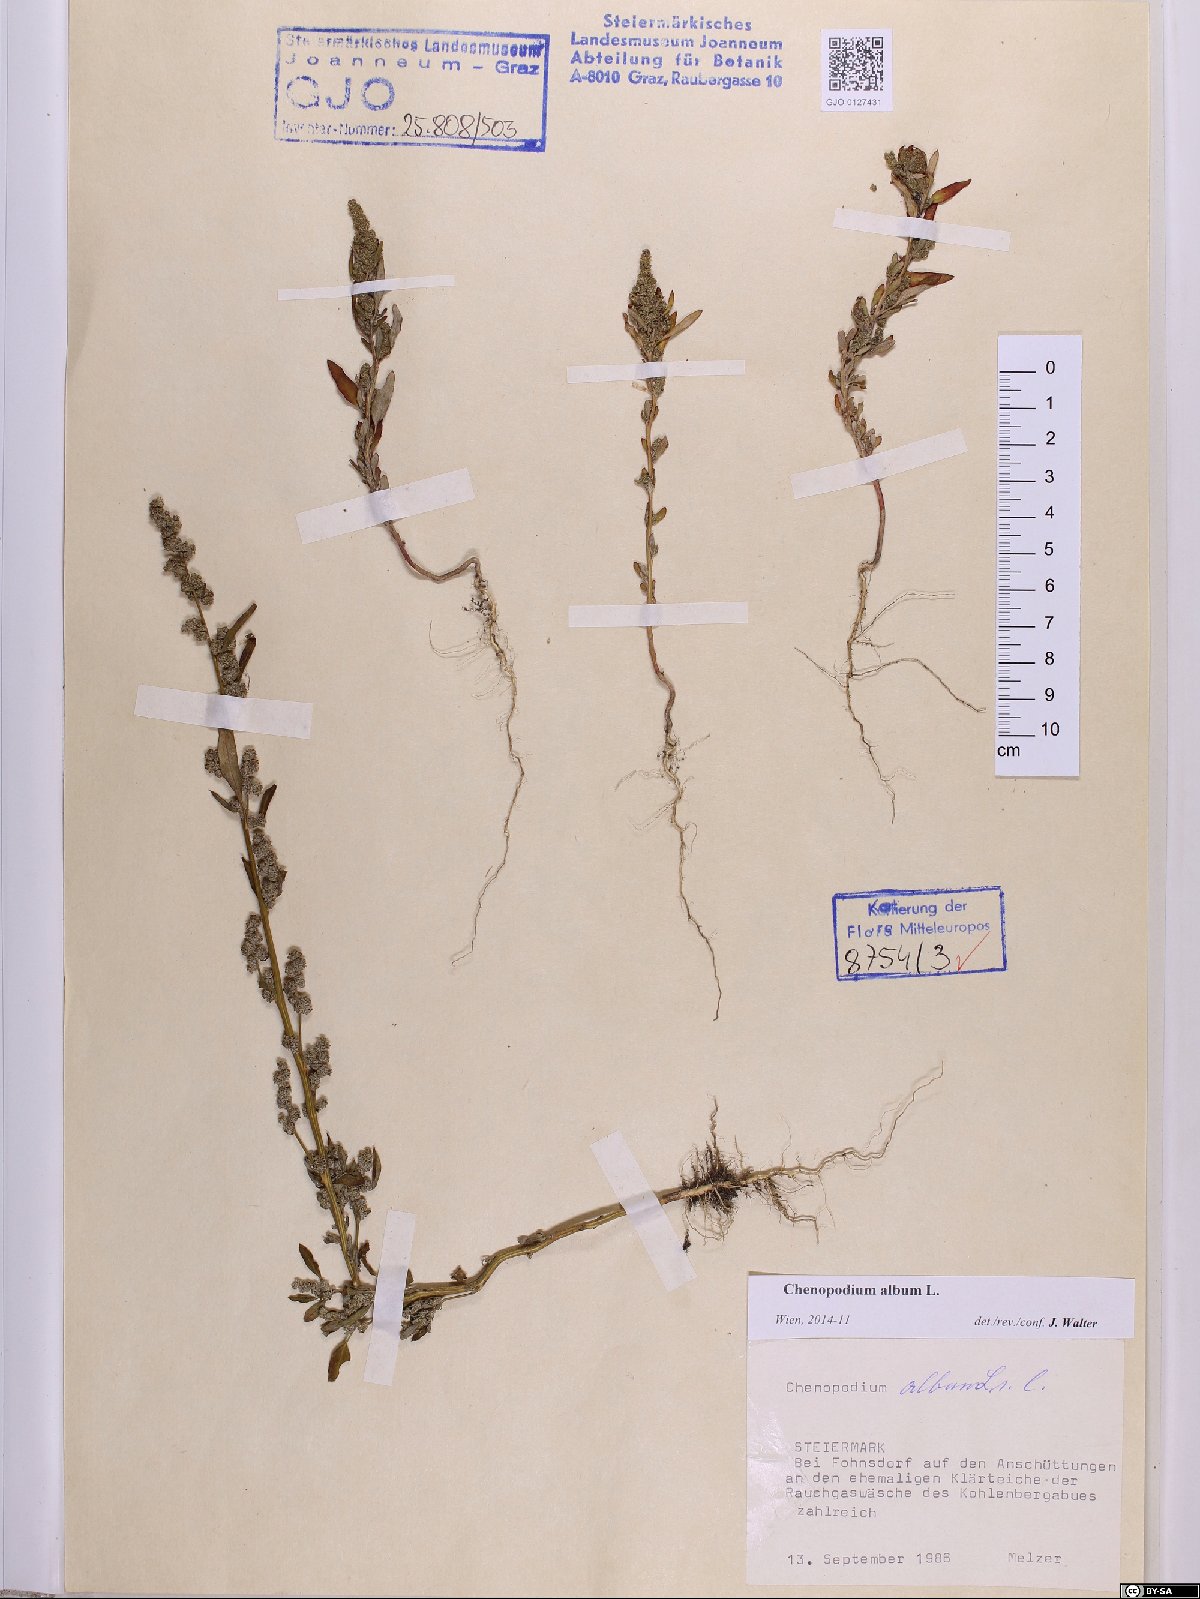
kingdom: Plantae
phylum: Tracheophyta
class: Magnoliopsida
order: Caryophyllales
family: Amaranthaceae
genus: Chenopodium
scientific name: Chenopodium album
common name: Fat-hen
